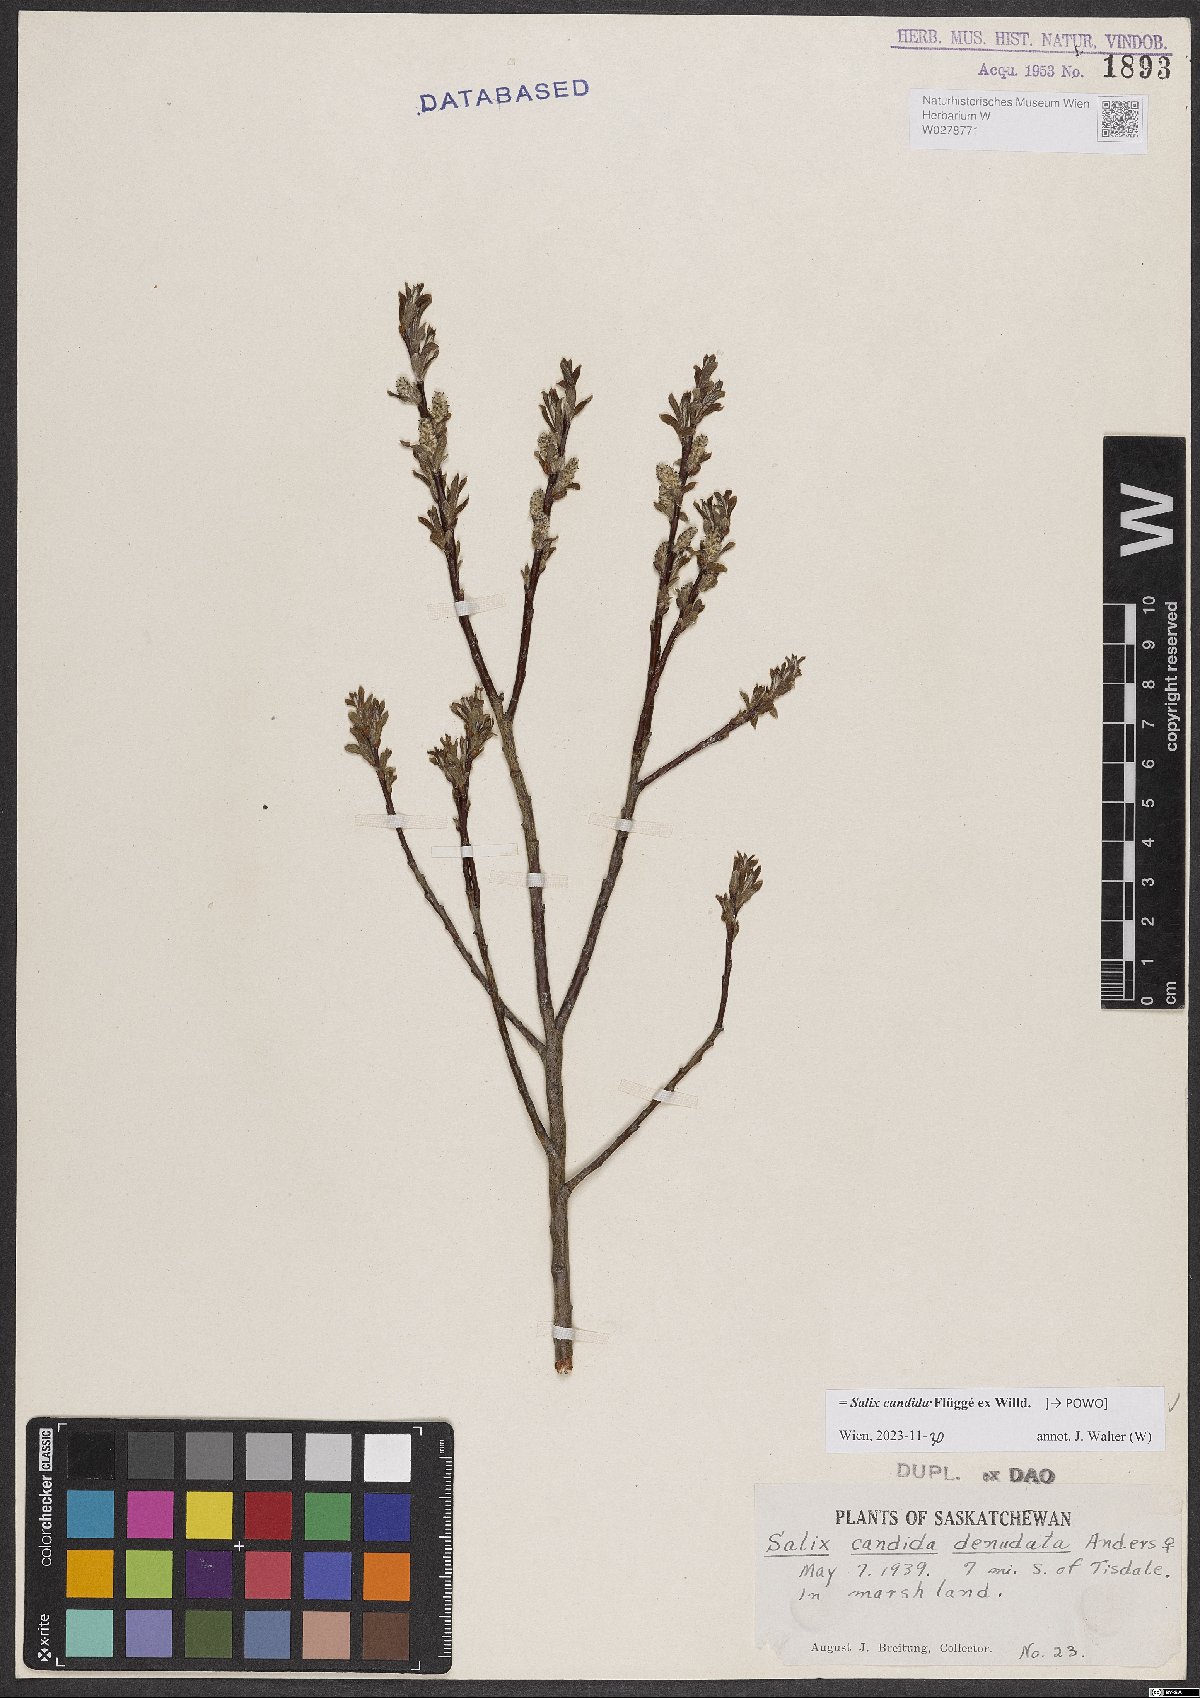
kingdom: Plantae
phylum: Tracheophyta
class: Magnoliopsida
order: Malpighiales
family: Salicaceae
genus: Salix
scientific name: Salix candida
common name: Hoary willow
